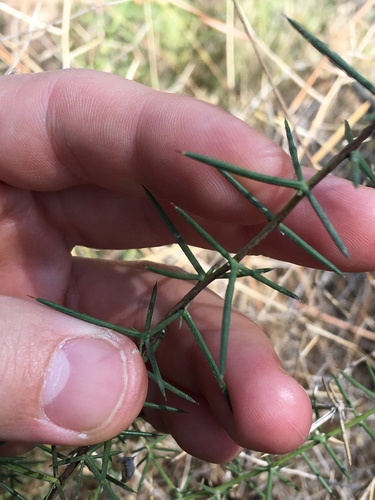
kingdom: Plantae
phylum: Tracheophyta
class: Liliopsida
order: Asparagales
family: Asparagaceae
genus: Asparagus
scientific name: Asparagus aphyllus
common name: Mediterranean asparagus
